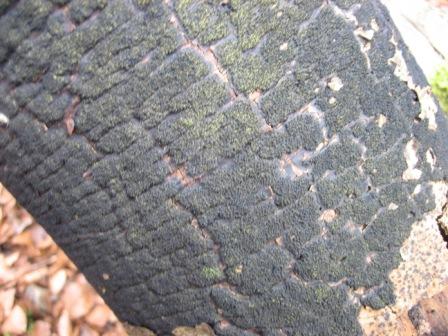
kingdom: Fungi
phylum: Ascomycota
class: Sordariomycetes
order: Xylariales
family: Diatrypaceae
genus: Eutypa
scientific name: Eutypa spinosa
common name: grov kulskorpe
